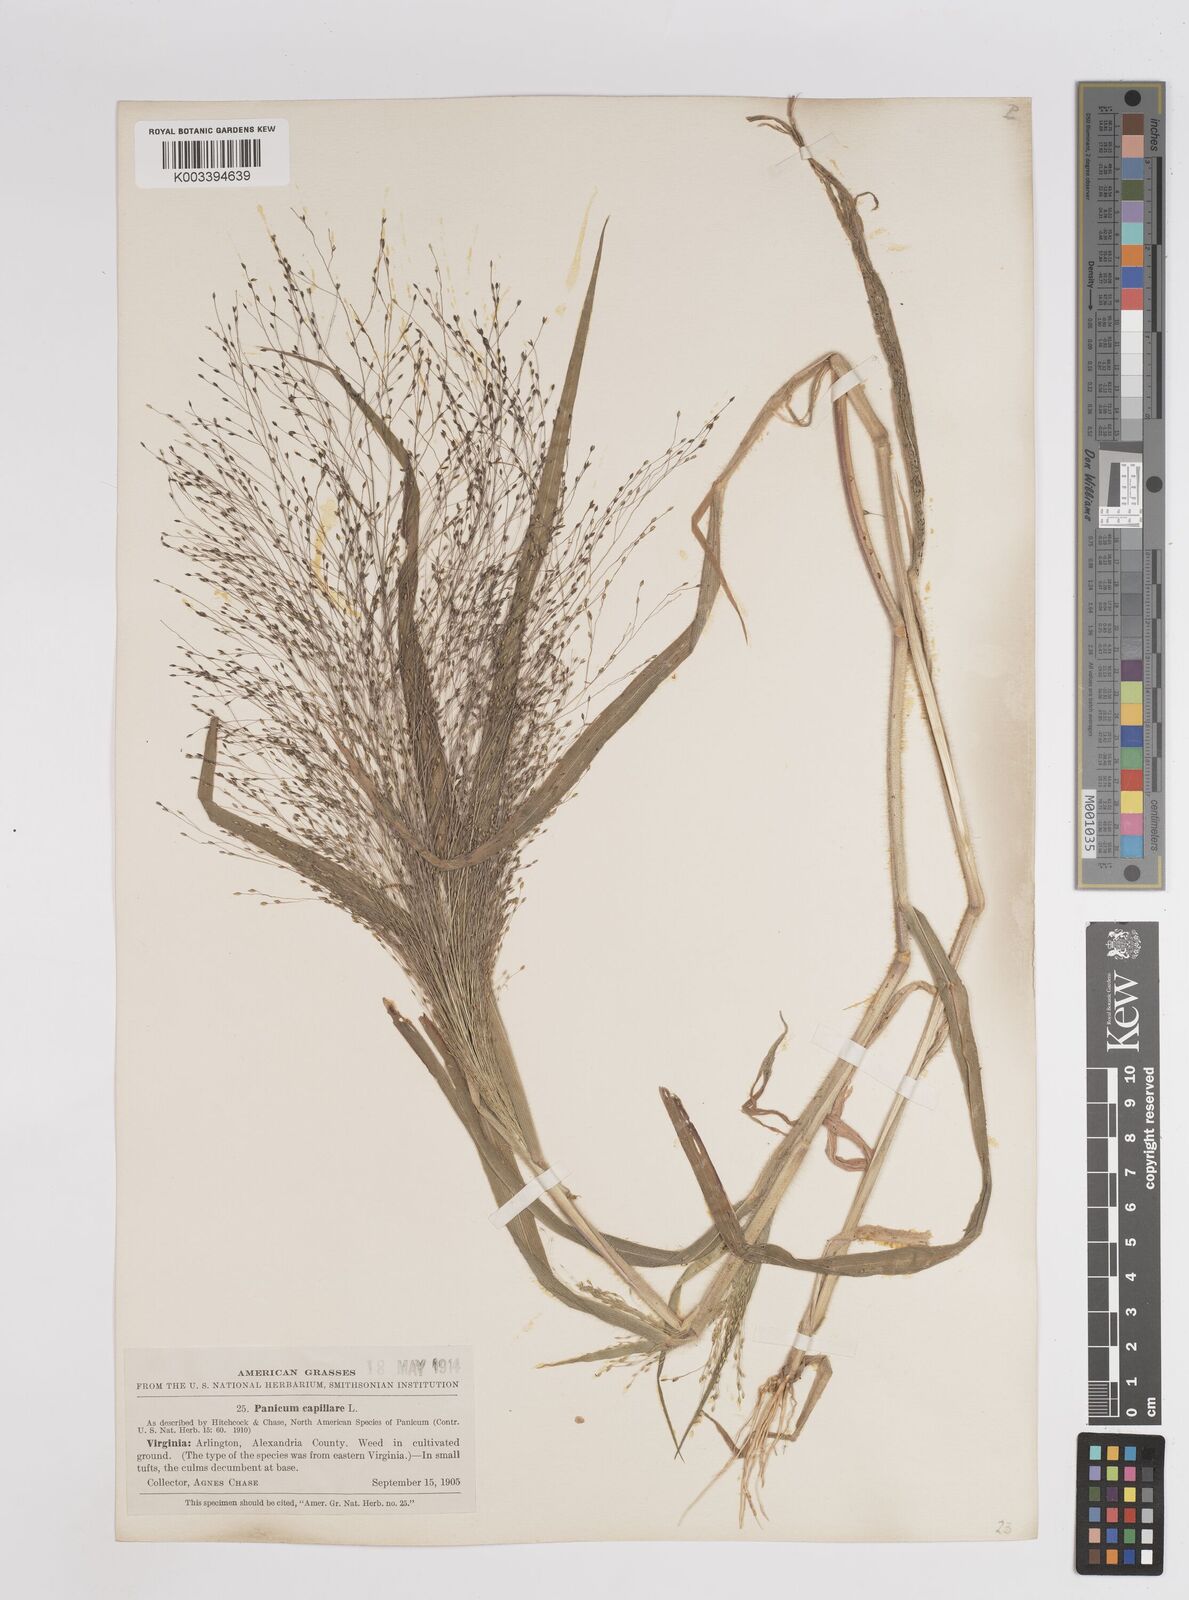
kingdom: Plantae
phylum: Tracheophyta
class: Liliopsida
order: Poales
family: Poaceae
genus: Panicum
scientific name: Panicum capillare
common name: Witch-grass
